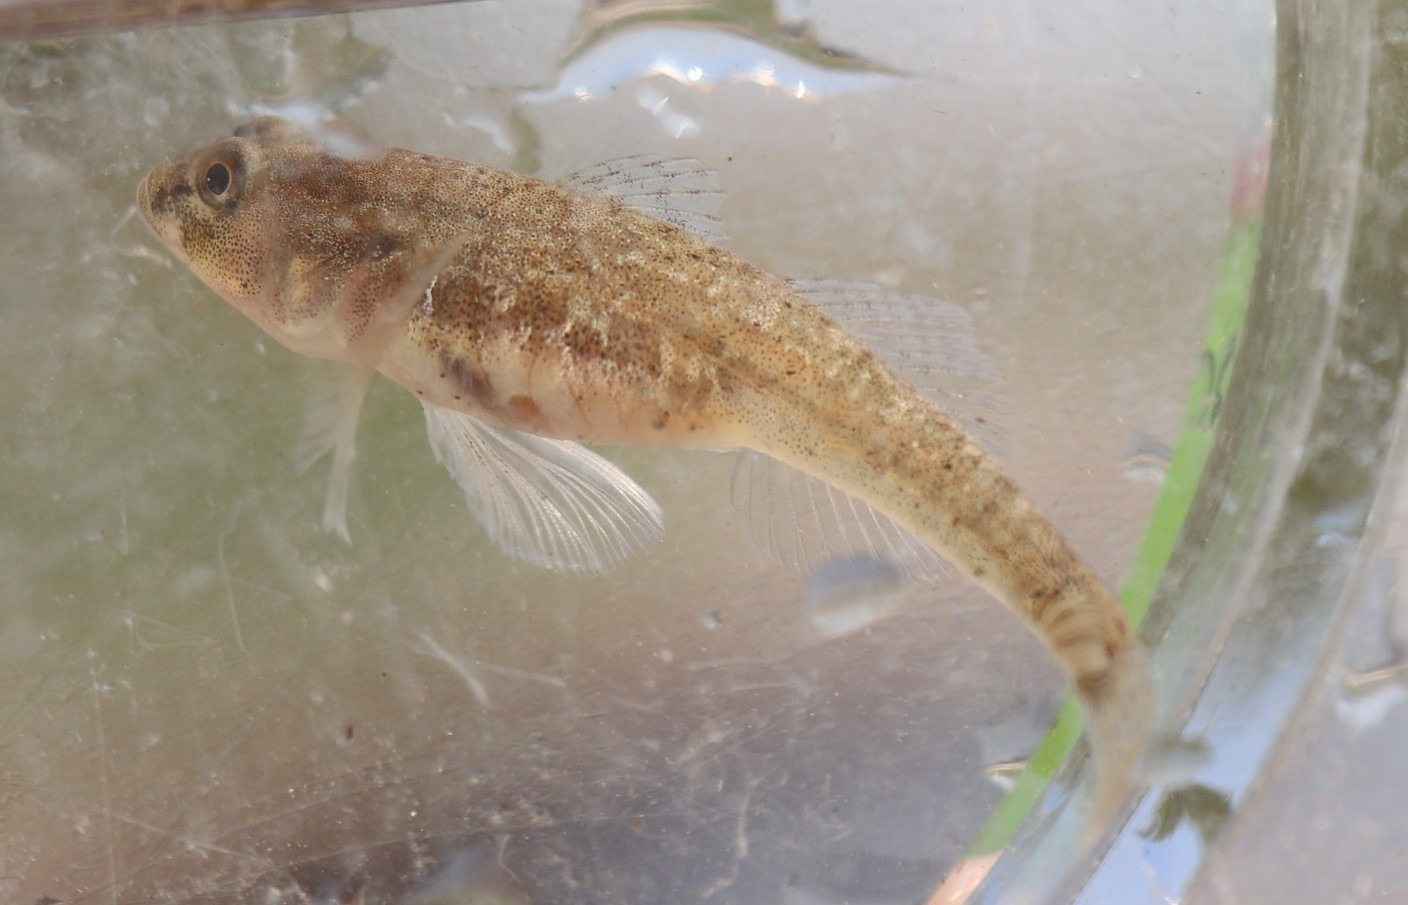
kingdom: Animalia
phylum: Chordata
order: Perciformes
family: Gobiidae
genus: Pomatoschistus
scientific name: Pomatoschistus microps
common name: Lerkutling
